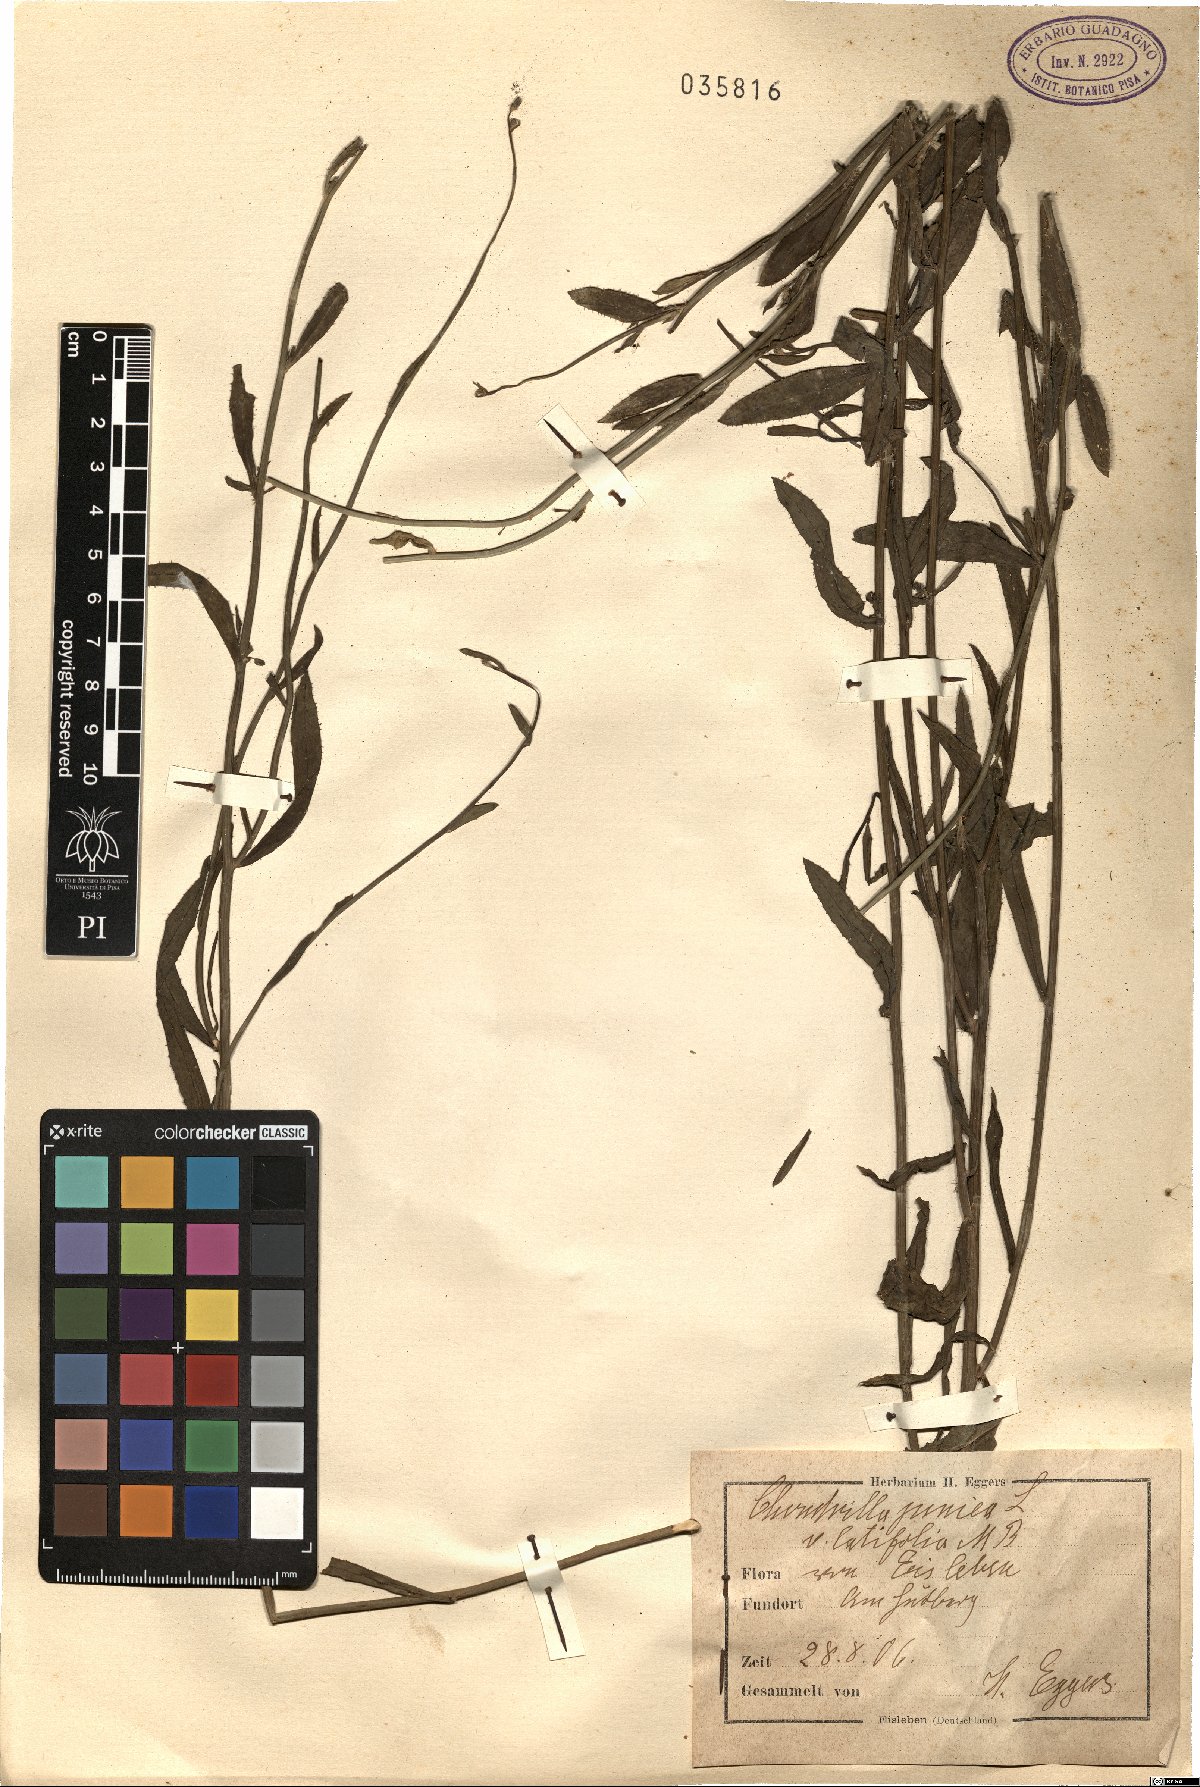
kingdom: Plantae
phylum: Tracheophyta
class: Magnoliopsida
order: Asterales
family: Asteraceae
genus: Chondrilla
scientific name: Chondrilla juncea
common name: Skeleton weed
